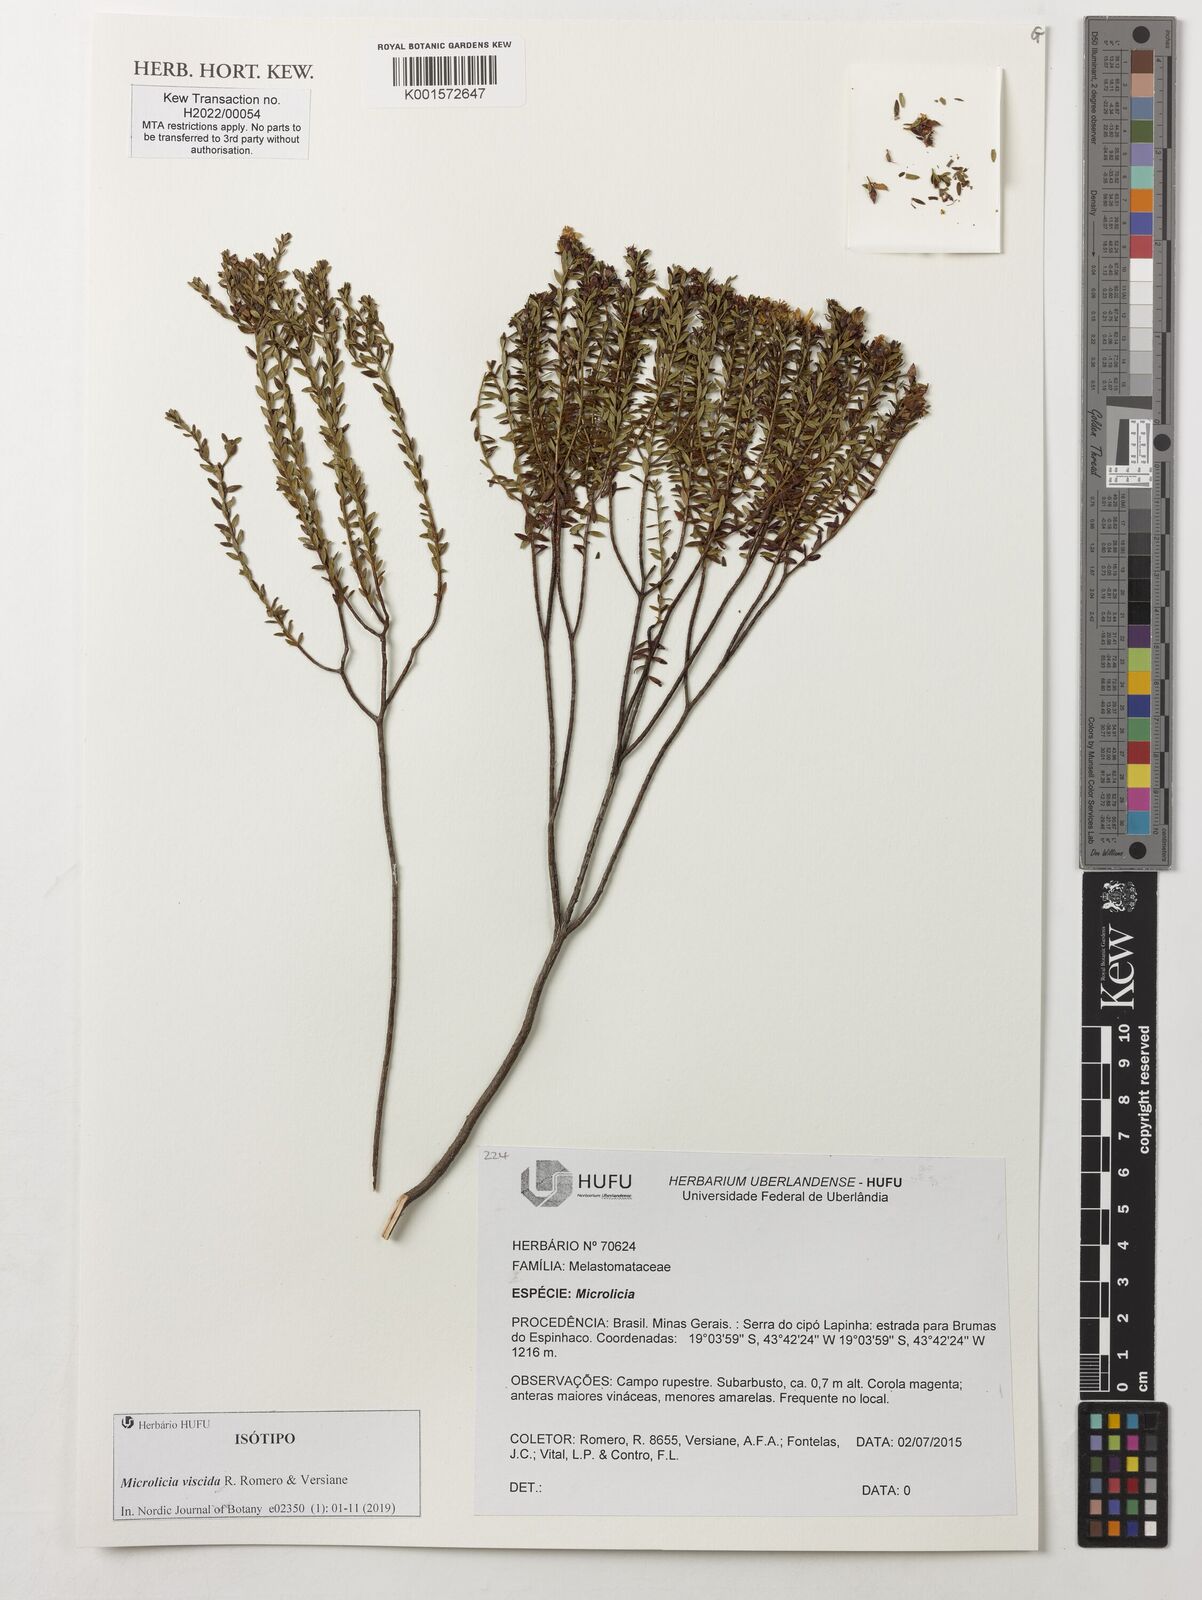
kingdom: Plantae
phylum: Tracheophyta
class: Magnoliopsida
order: Myrtales
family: Melastomataceae
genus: Microlicia
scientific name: Microlicia viscida
